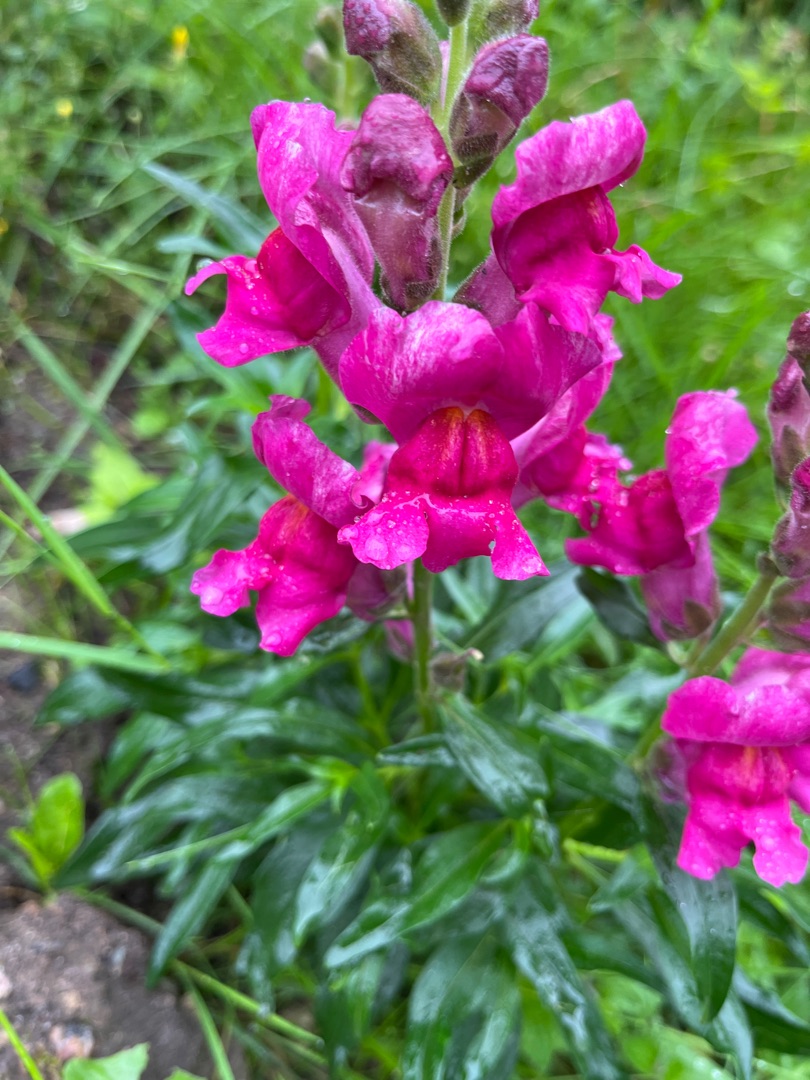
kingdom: Plantae
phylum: Tracheophyta
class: Magnoliopsida
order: Lamiales
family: Plantaginaceae
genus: Antirrhinum
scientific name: Antirrhinum majus
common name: Have-løvemund
